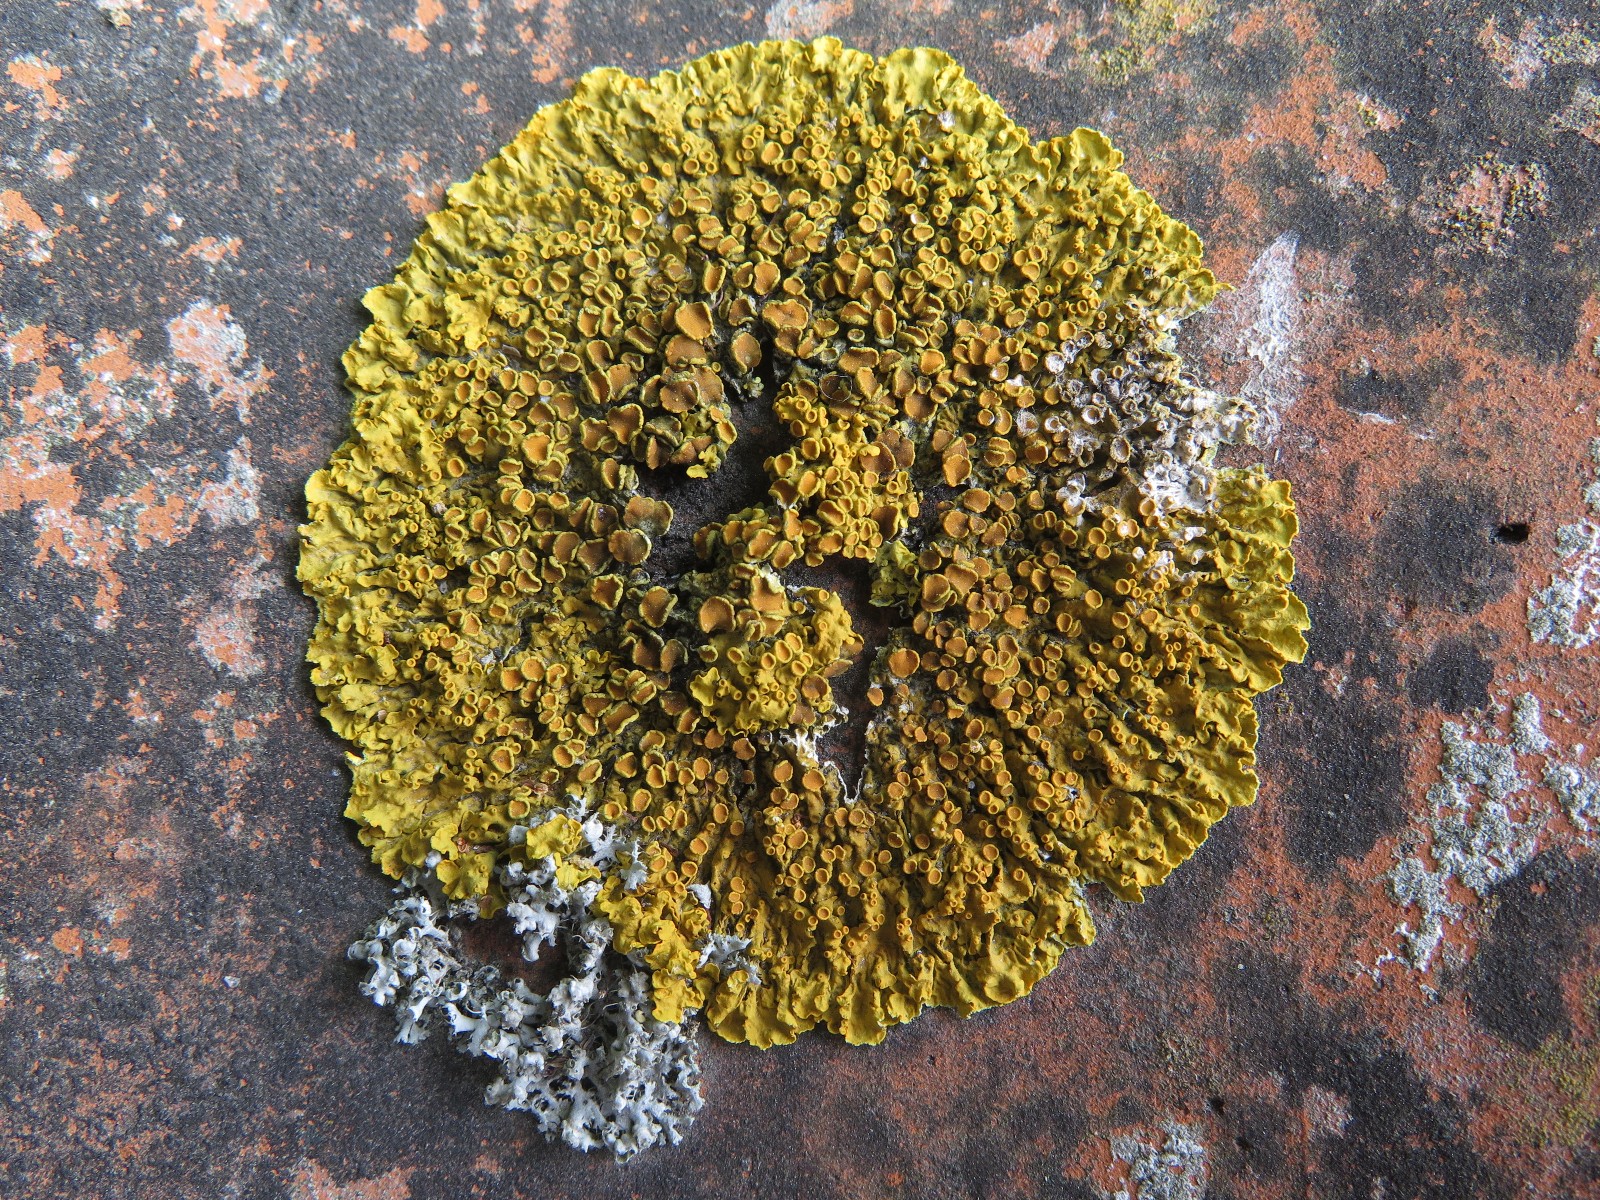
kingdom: Fungi
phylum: Ascomycota
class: Lecanoromycetes
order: Teloschistales
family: Teloschistaceae
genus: Xanthoria
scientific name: Xanthoria parietina
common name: almindelig væggelav
